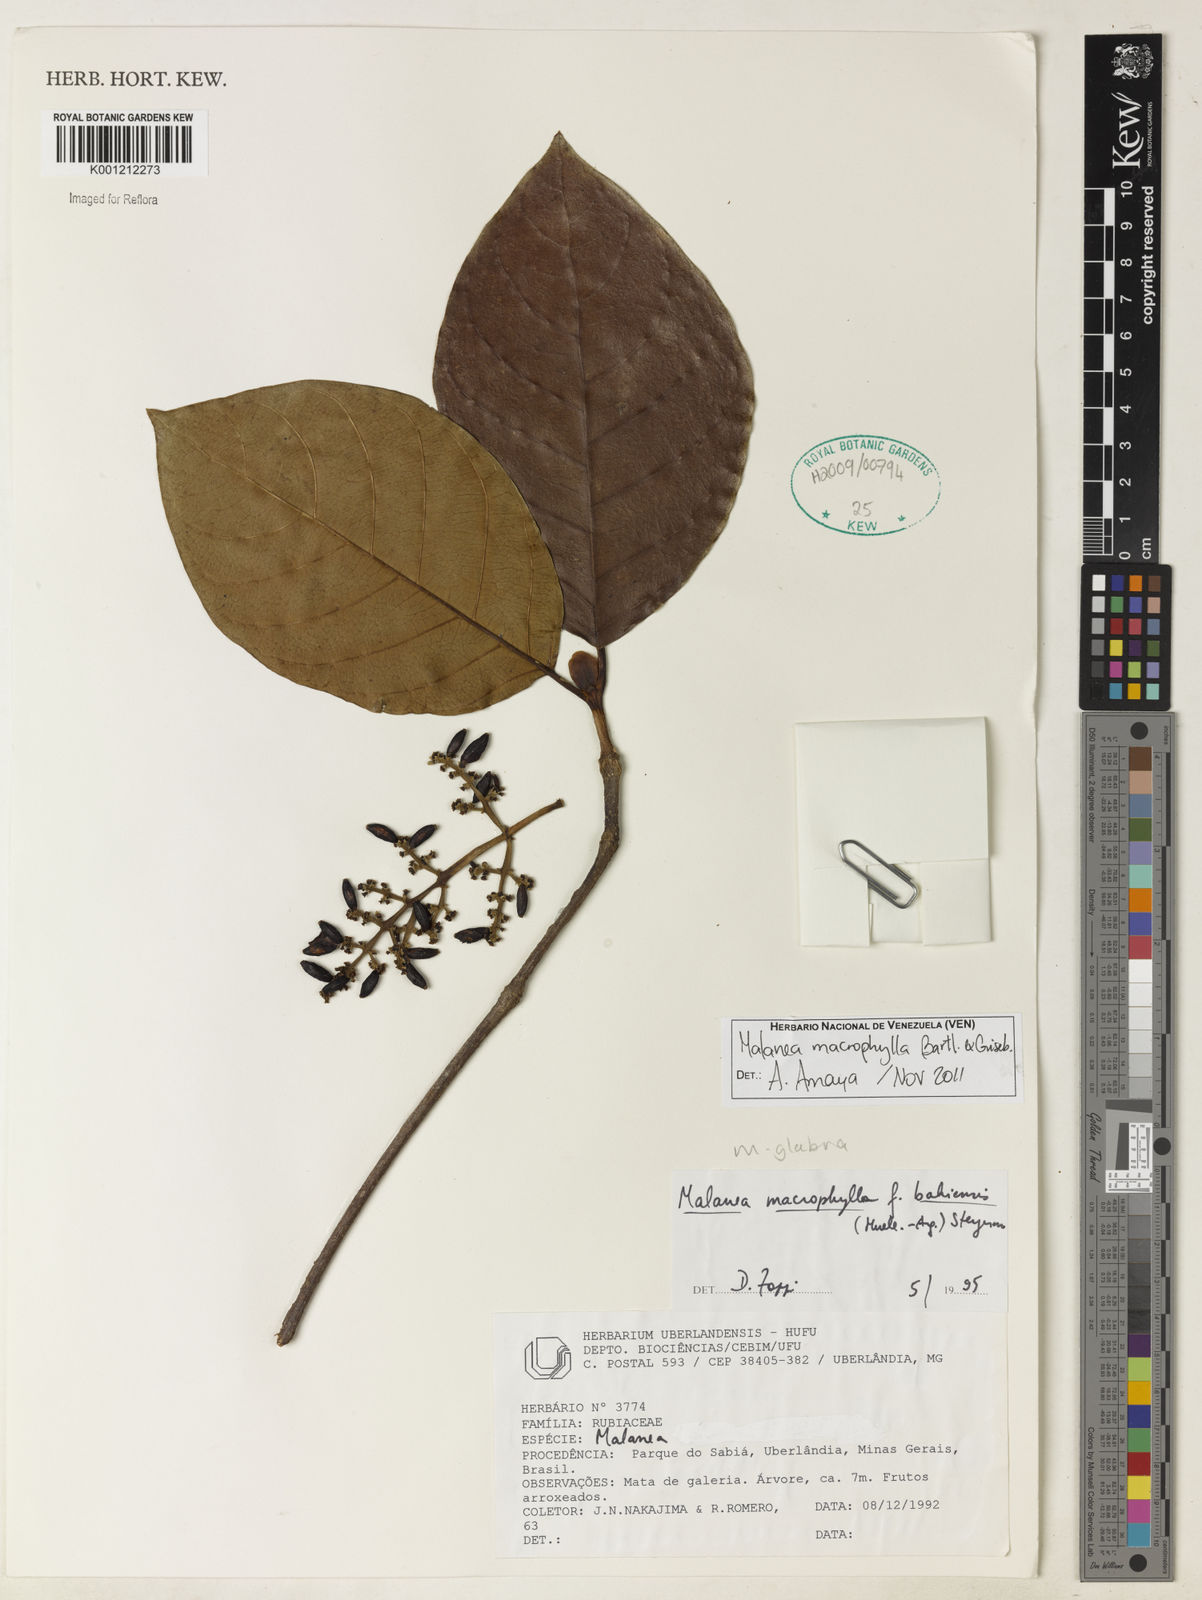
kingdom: Plantae
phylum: Tracheophyta
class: Magnoliopsida
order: Gentianales
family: Rubiaceae
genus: Malanea
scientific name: Malanea glabra
